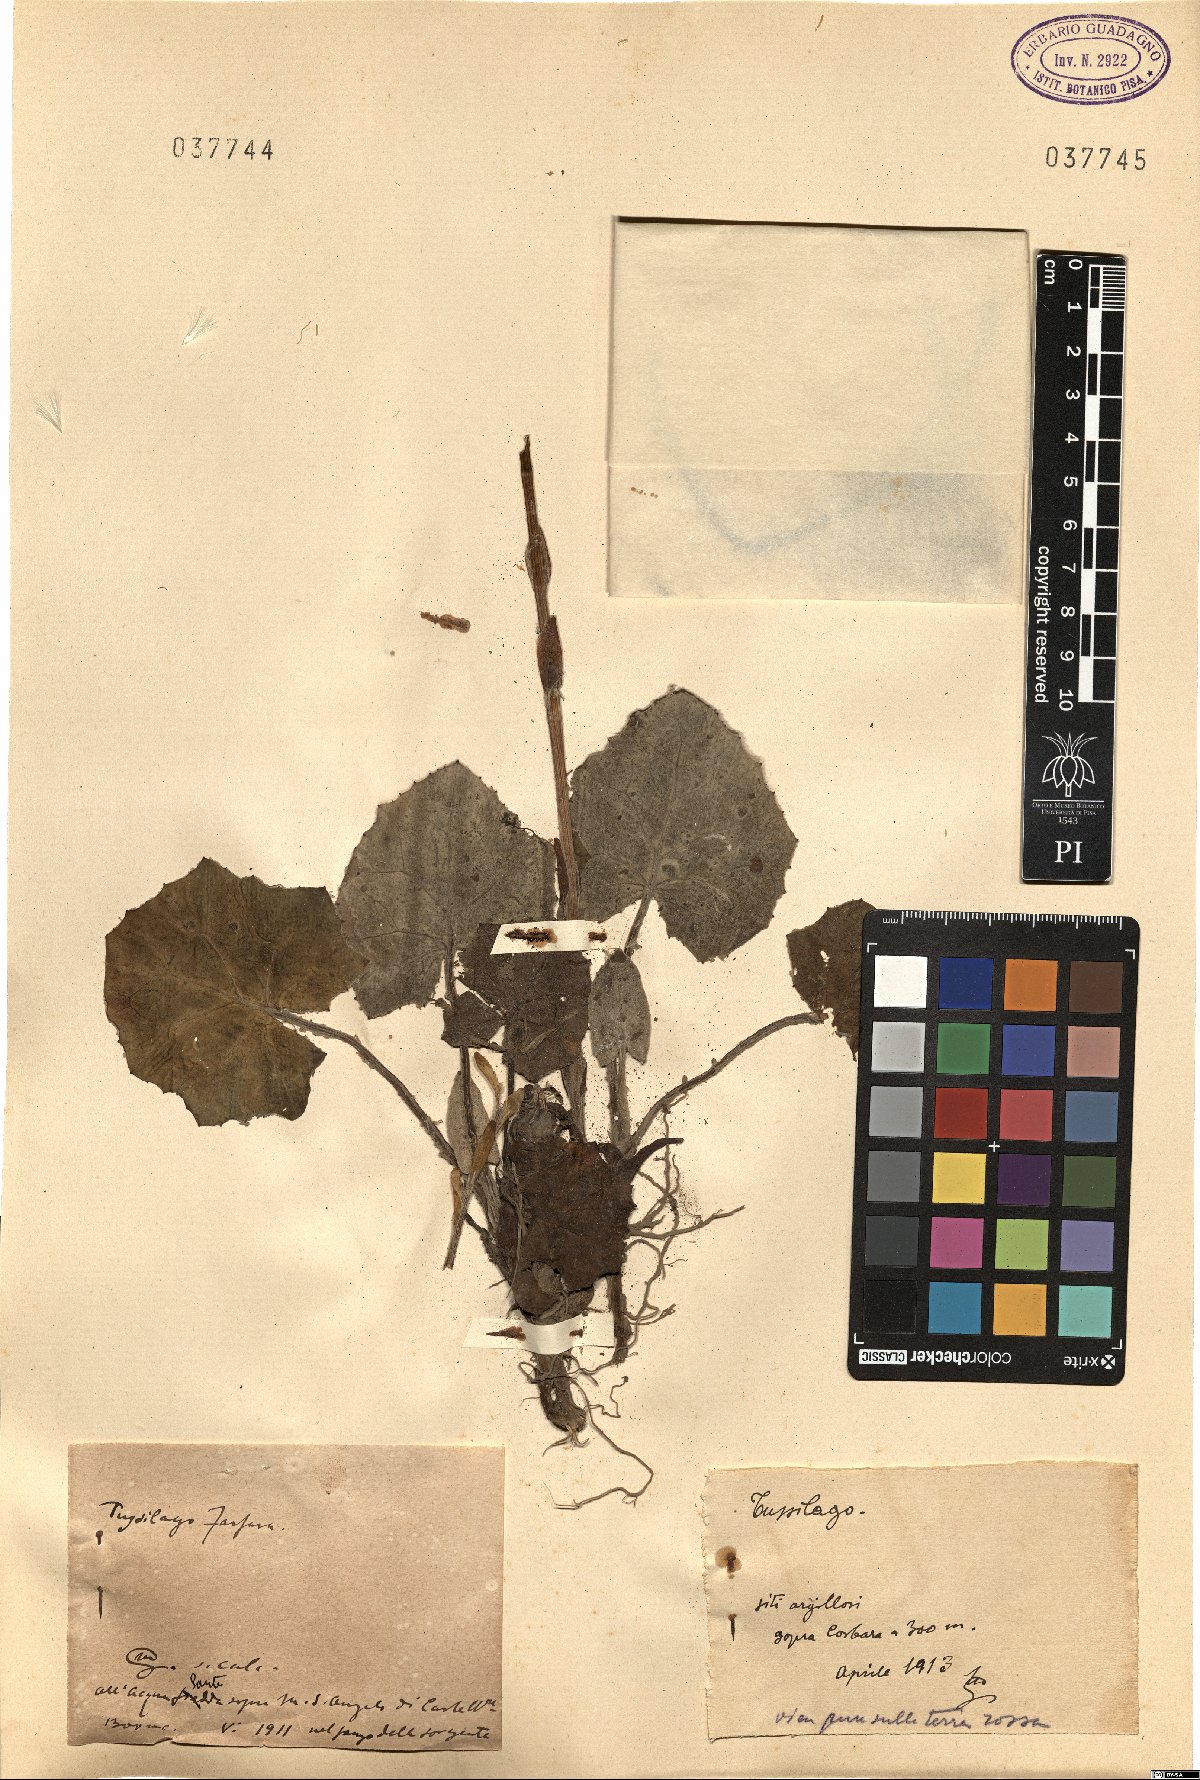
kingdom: Plantae
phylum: Tracheophyta
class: Magnoliopsida
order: Asterales
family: Asteraceae
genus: Tussilago
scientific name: Tussilago farfara
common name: Coltsfoot
